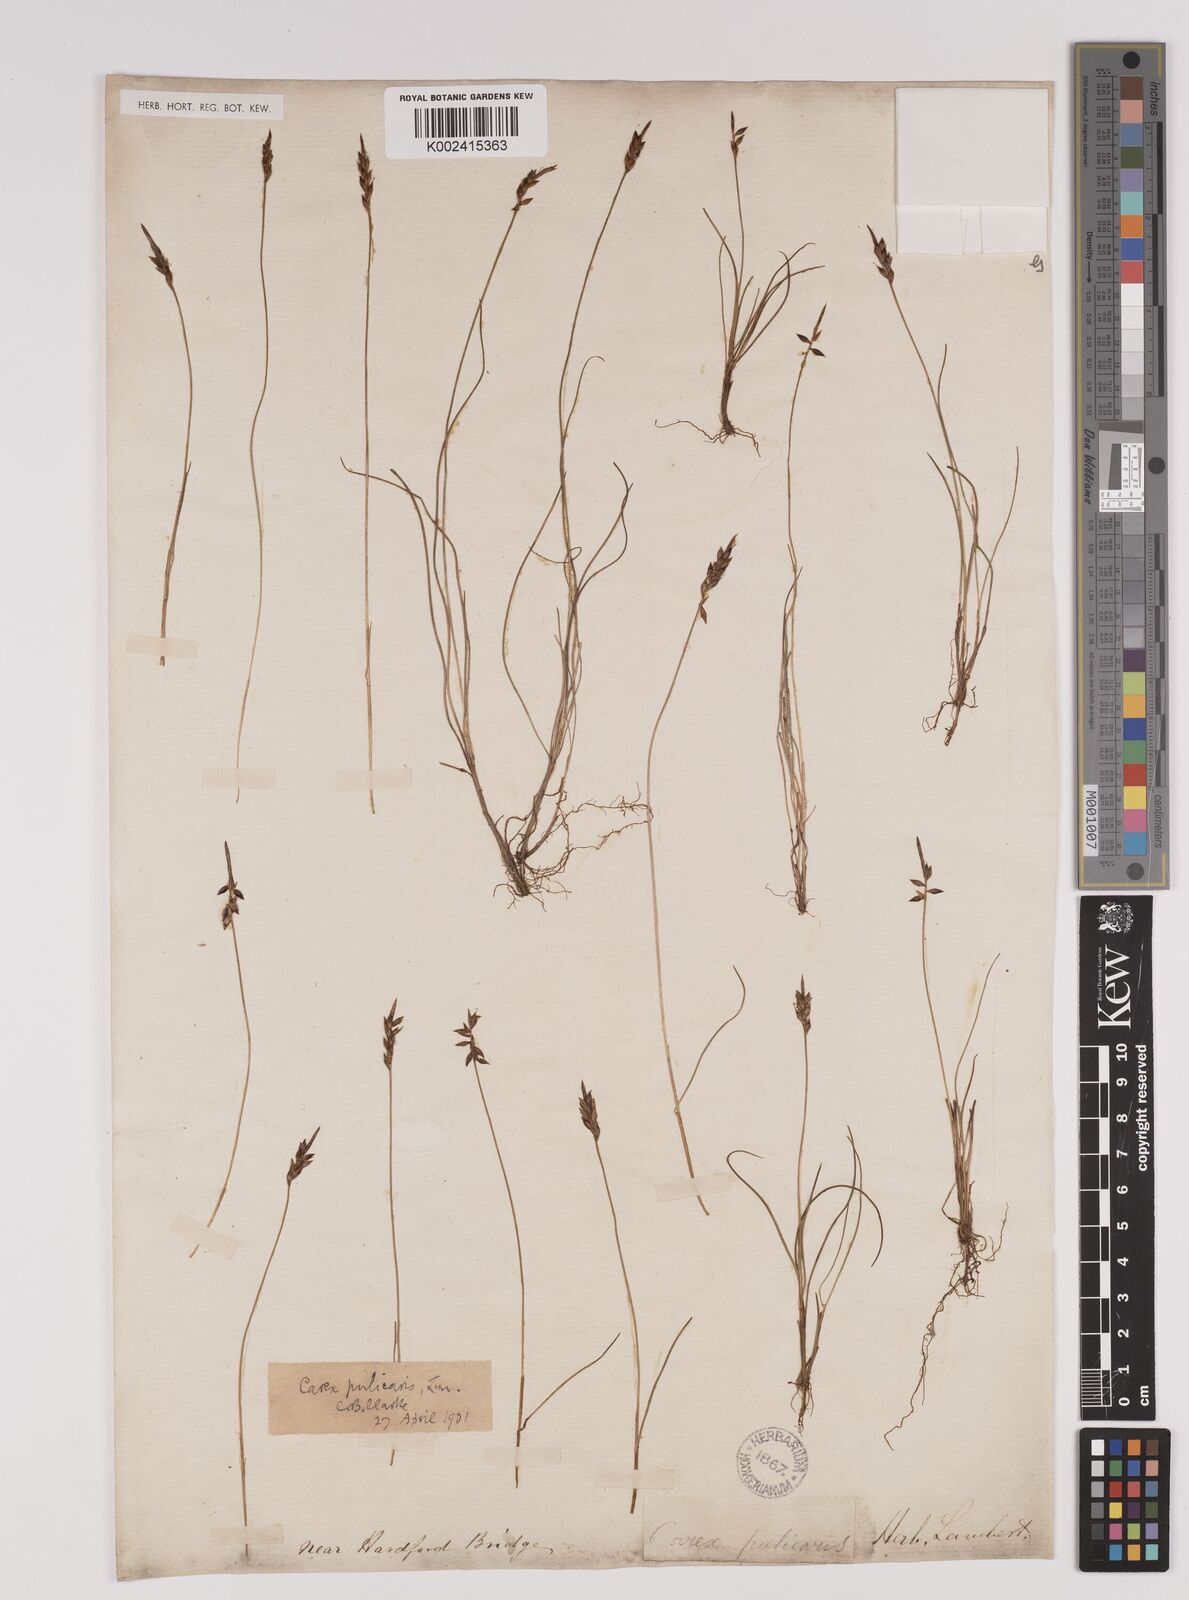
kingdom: Plantae
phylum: Tracheophyta
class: Liliopsida
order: Poales
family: Cyperaceae
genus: Carex
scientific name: Carex pulicaris
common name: Flea sedge
